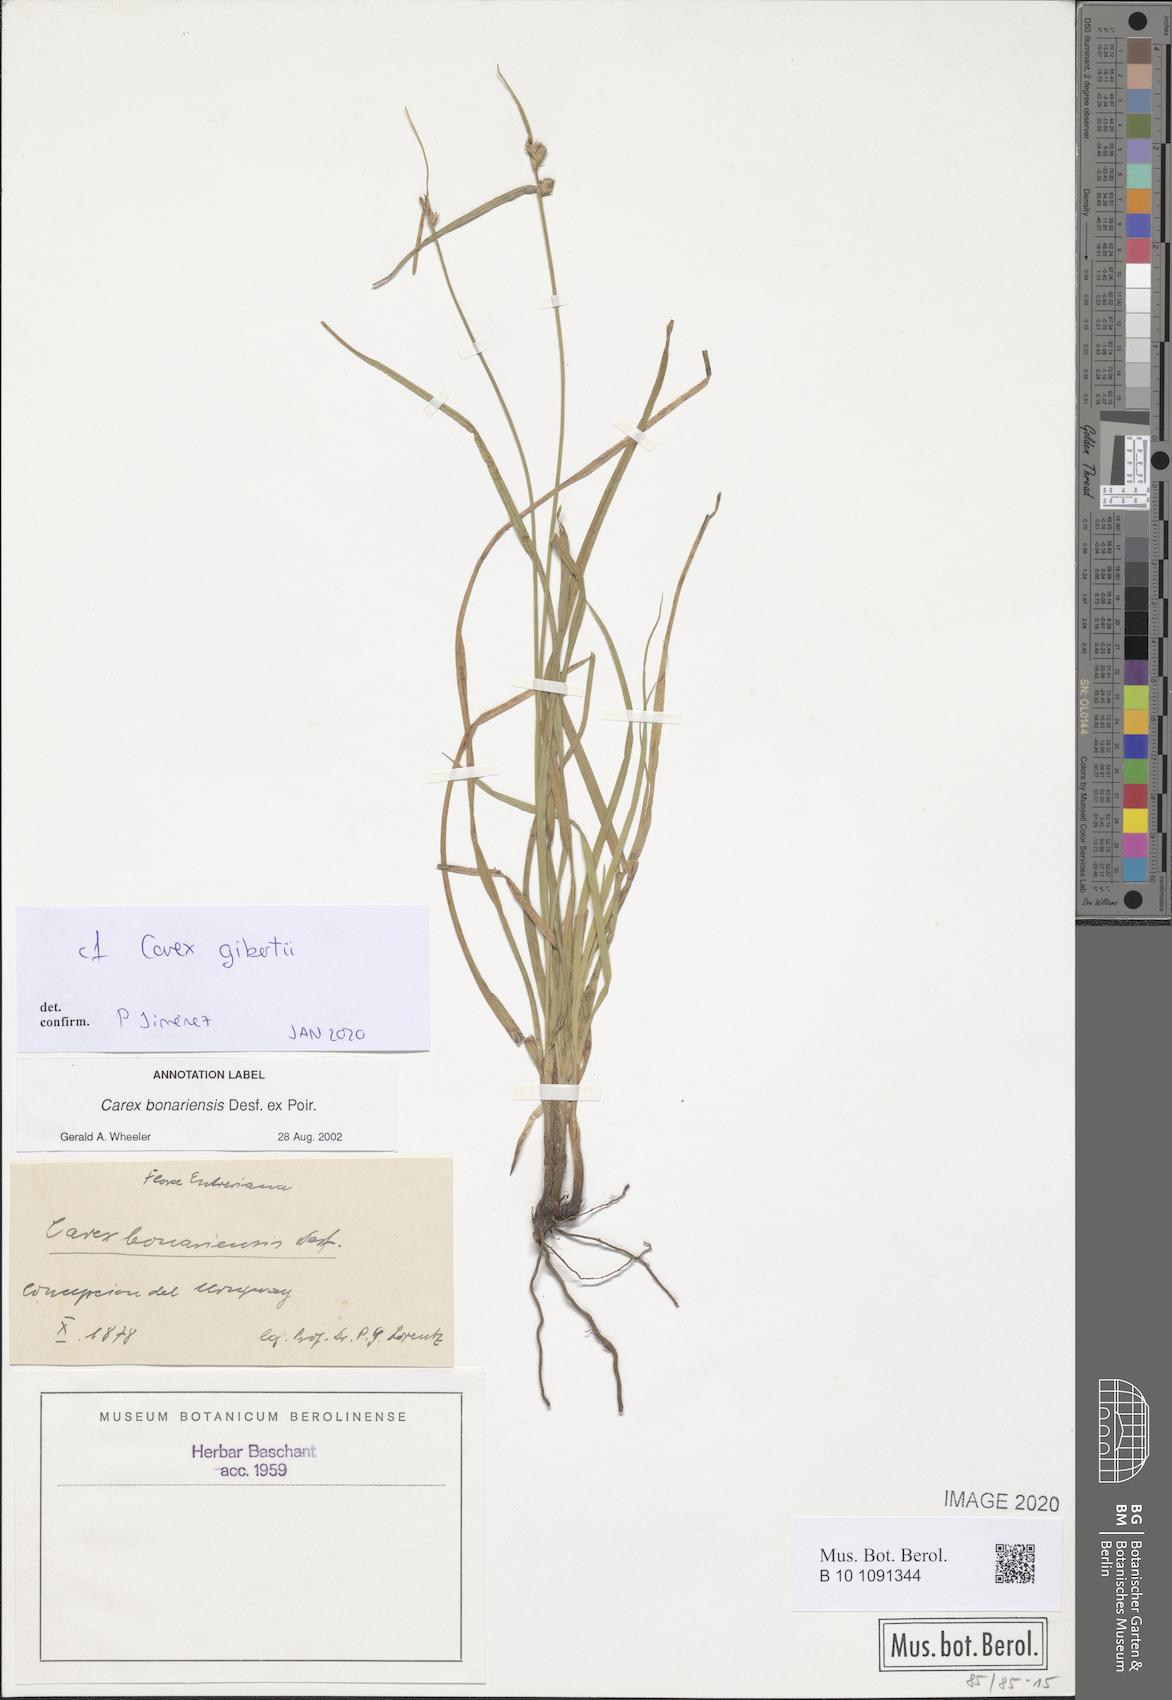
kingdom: Plantae
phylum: Tracheophyta
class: Liliopsida
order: Poales
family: Cyperaceae
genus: Carex
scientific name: Carex gibertii
